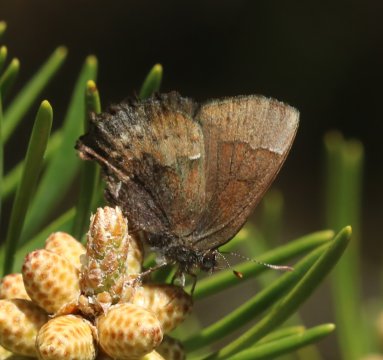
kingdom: Animalia
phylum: Arthropoda
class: Insecta
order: Lepidoptera
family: Lycaenidae
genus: Incisalia
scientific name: Incisalia henrici
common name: Henry's Elfin
